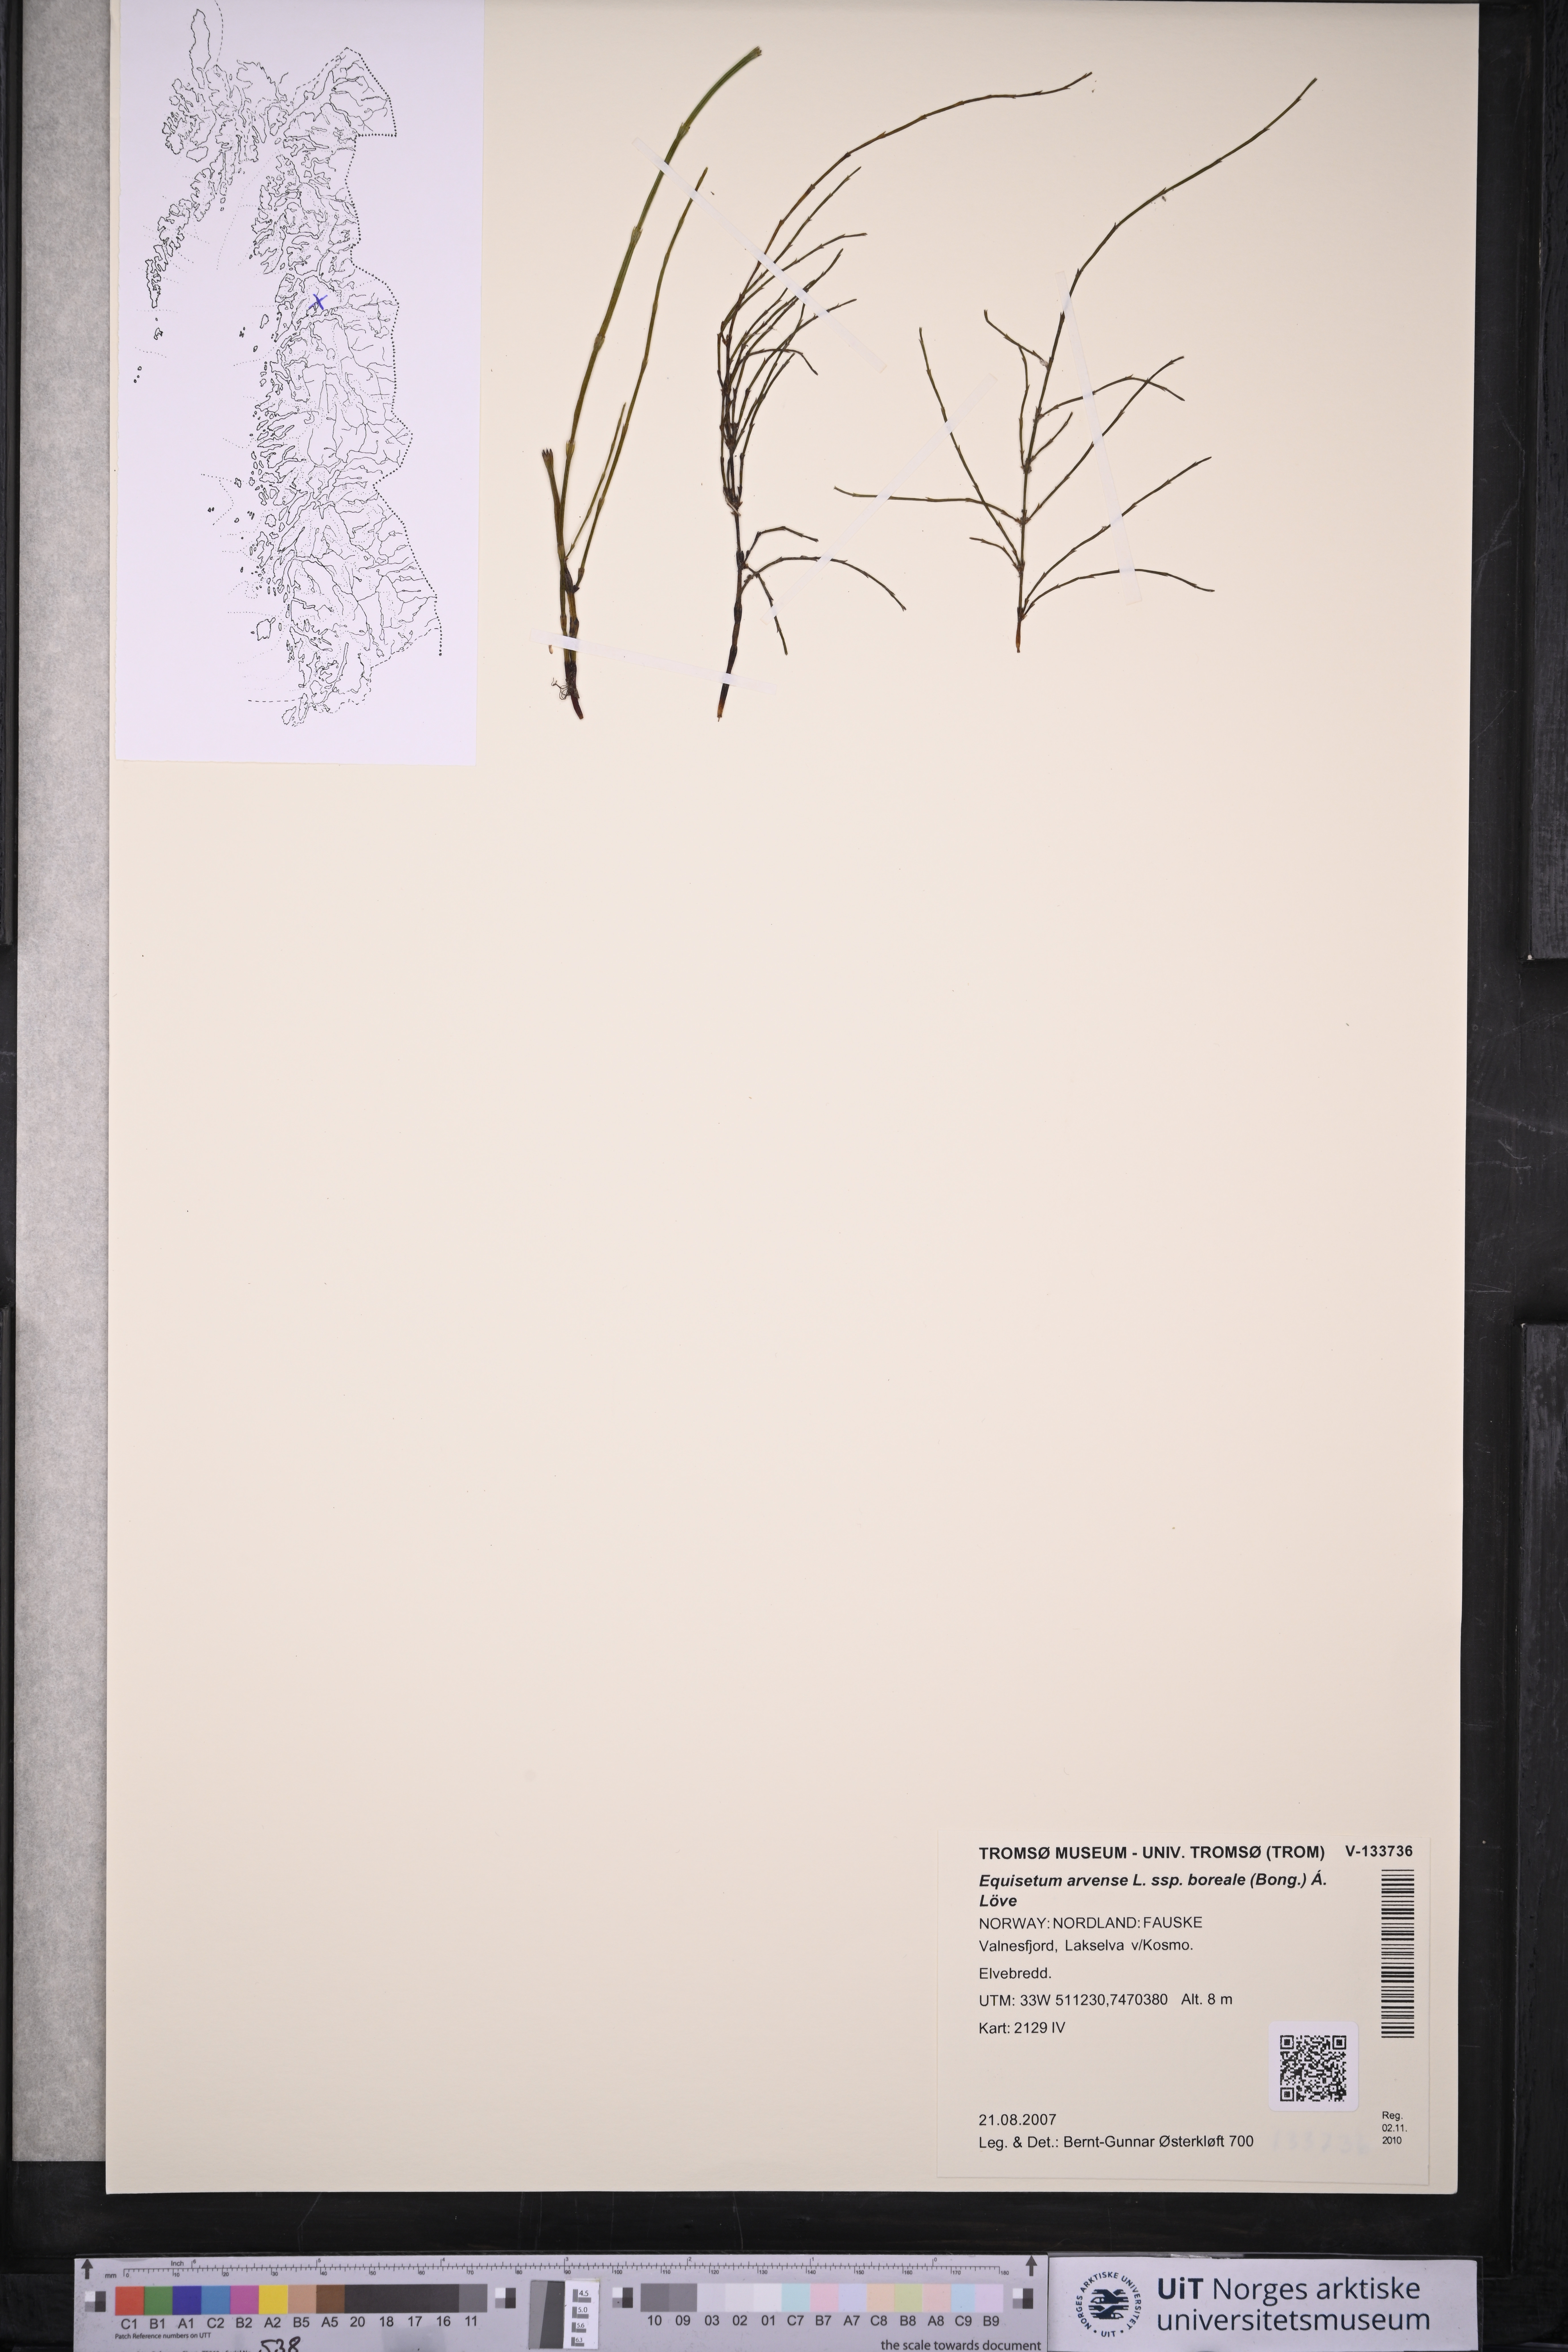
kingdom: Plantae
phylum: Tracheophyta
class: Polypodiopsida
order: Equisetales
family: Equisetaceae
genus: Equisetum
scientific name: Equisetum arvense
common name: Field horsetail
